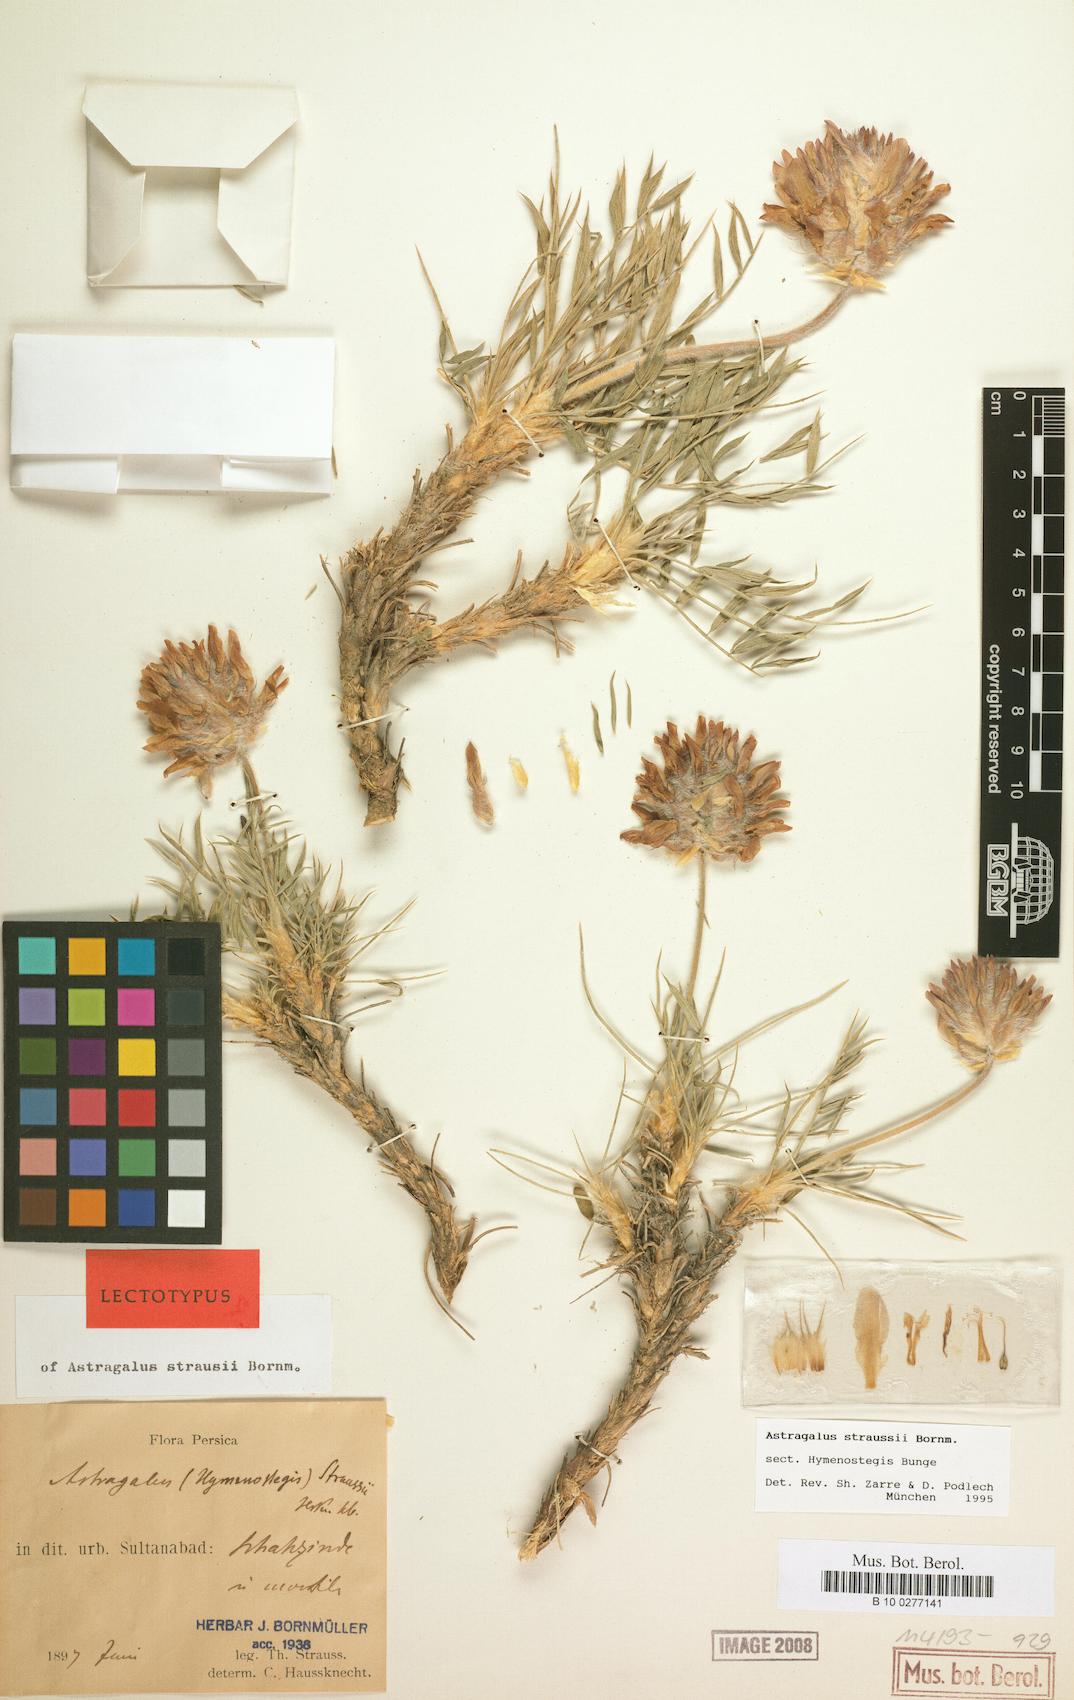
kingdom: Plantae
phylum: Tracheophyta
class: Magnoliopsida
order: Fabales
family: Fabaceae
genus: Astragalus
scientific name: Astragalus straussii
